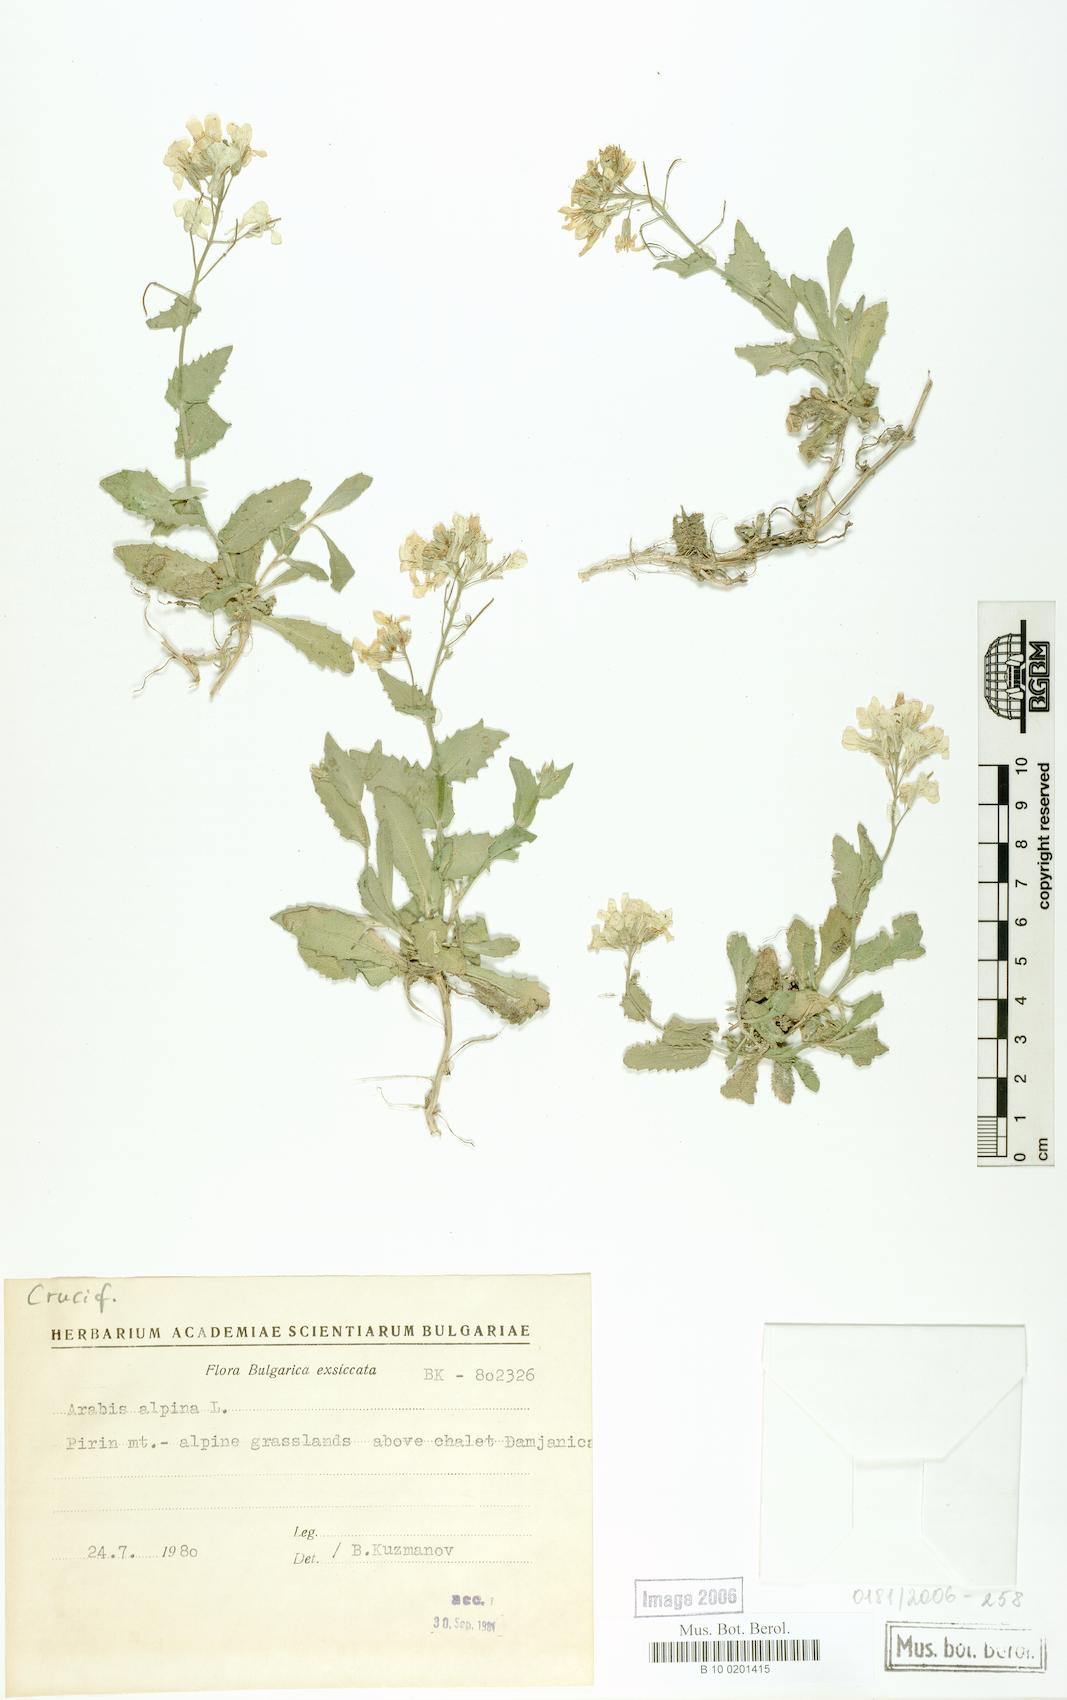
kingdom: Plantae
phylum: Tracheophyta
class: Magnoliopsida
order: Brassicales
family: Brassicaceae
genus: Arabis
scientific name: Arabis alpina
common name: Alpine rock-cress
